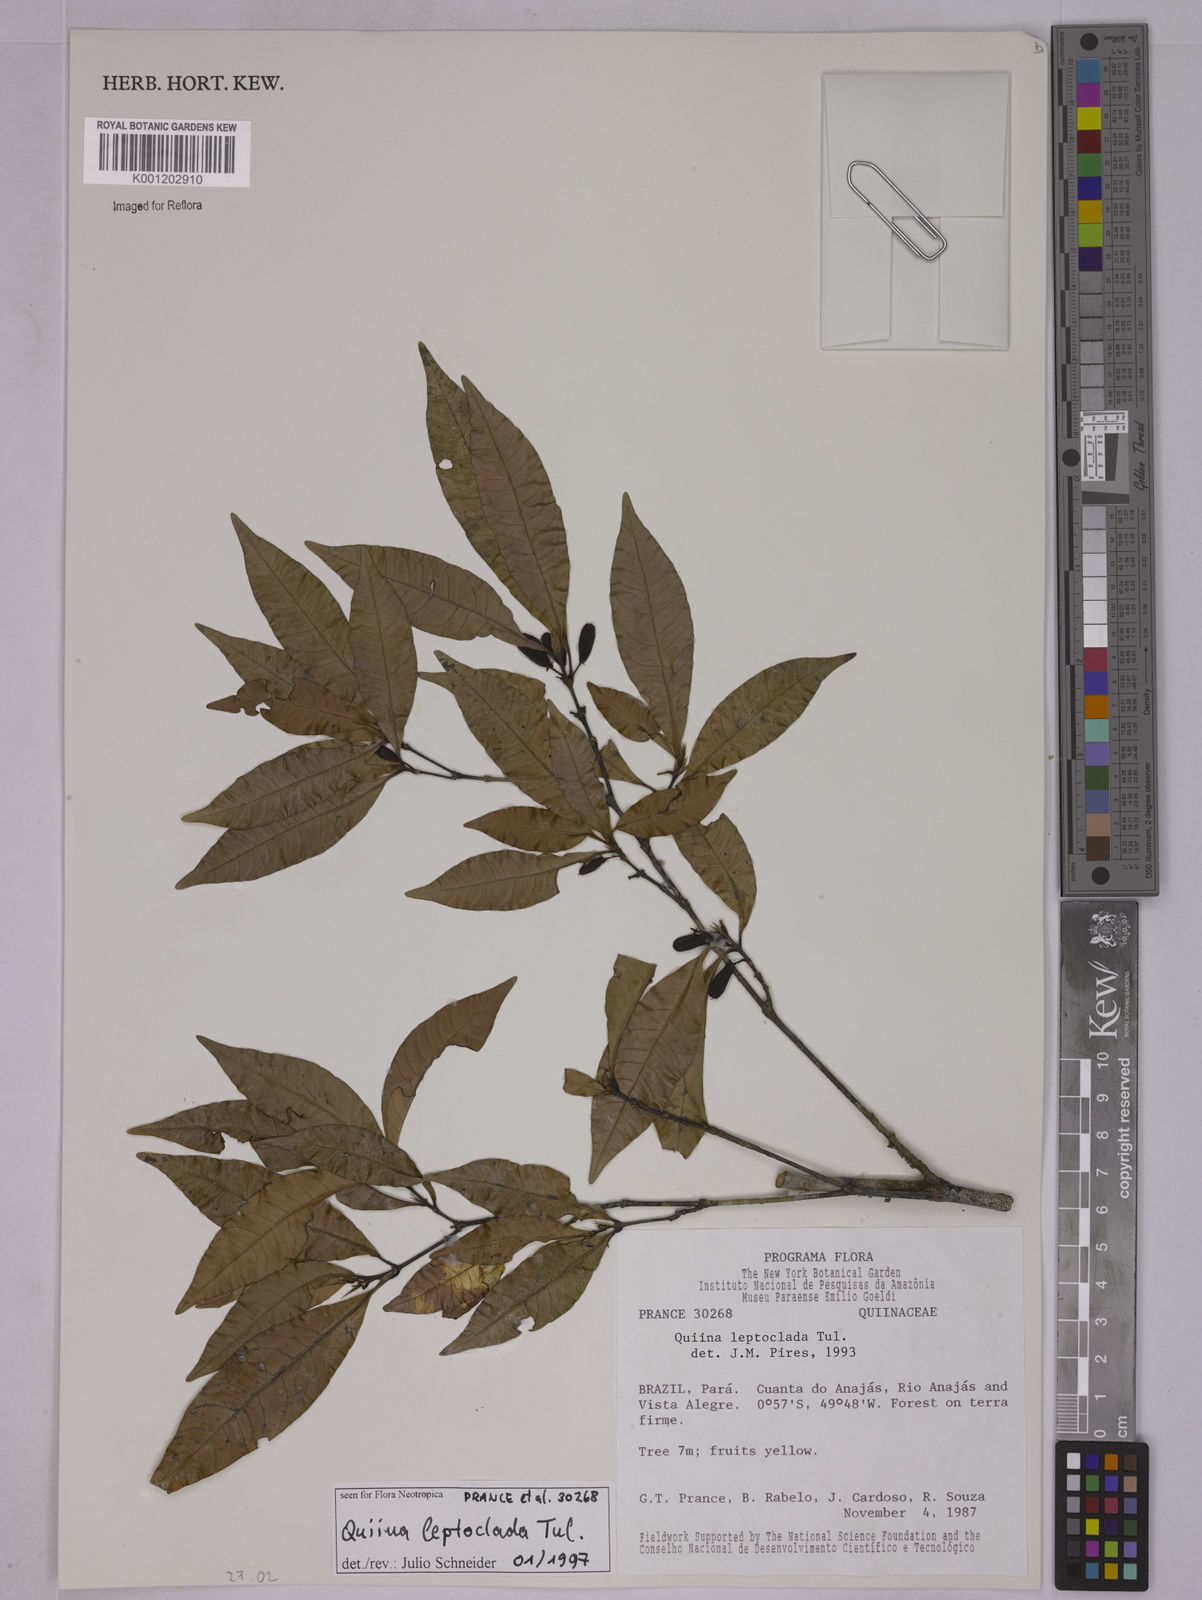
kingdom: Plantae
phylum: Tracheophyta
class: Magnoliopsida
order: Malpighiales
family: Quiinaceae
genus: Quiina
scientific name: Quiina leptoclada
